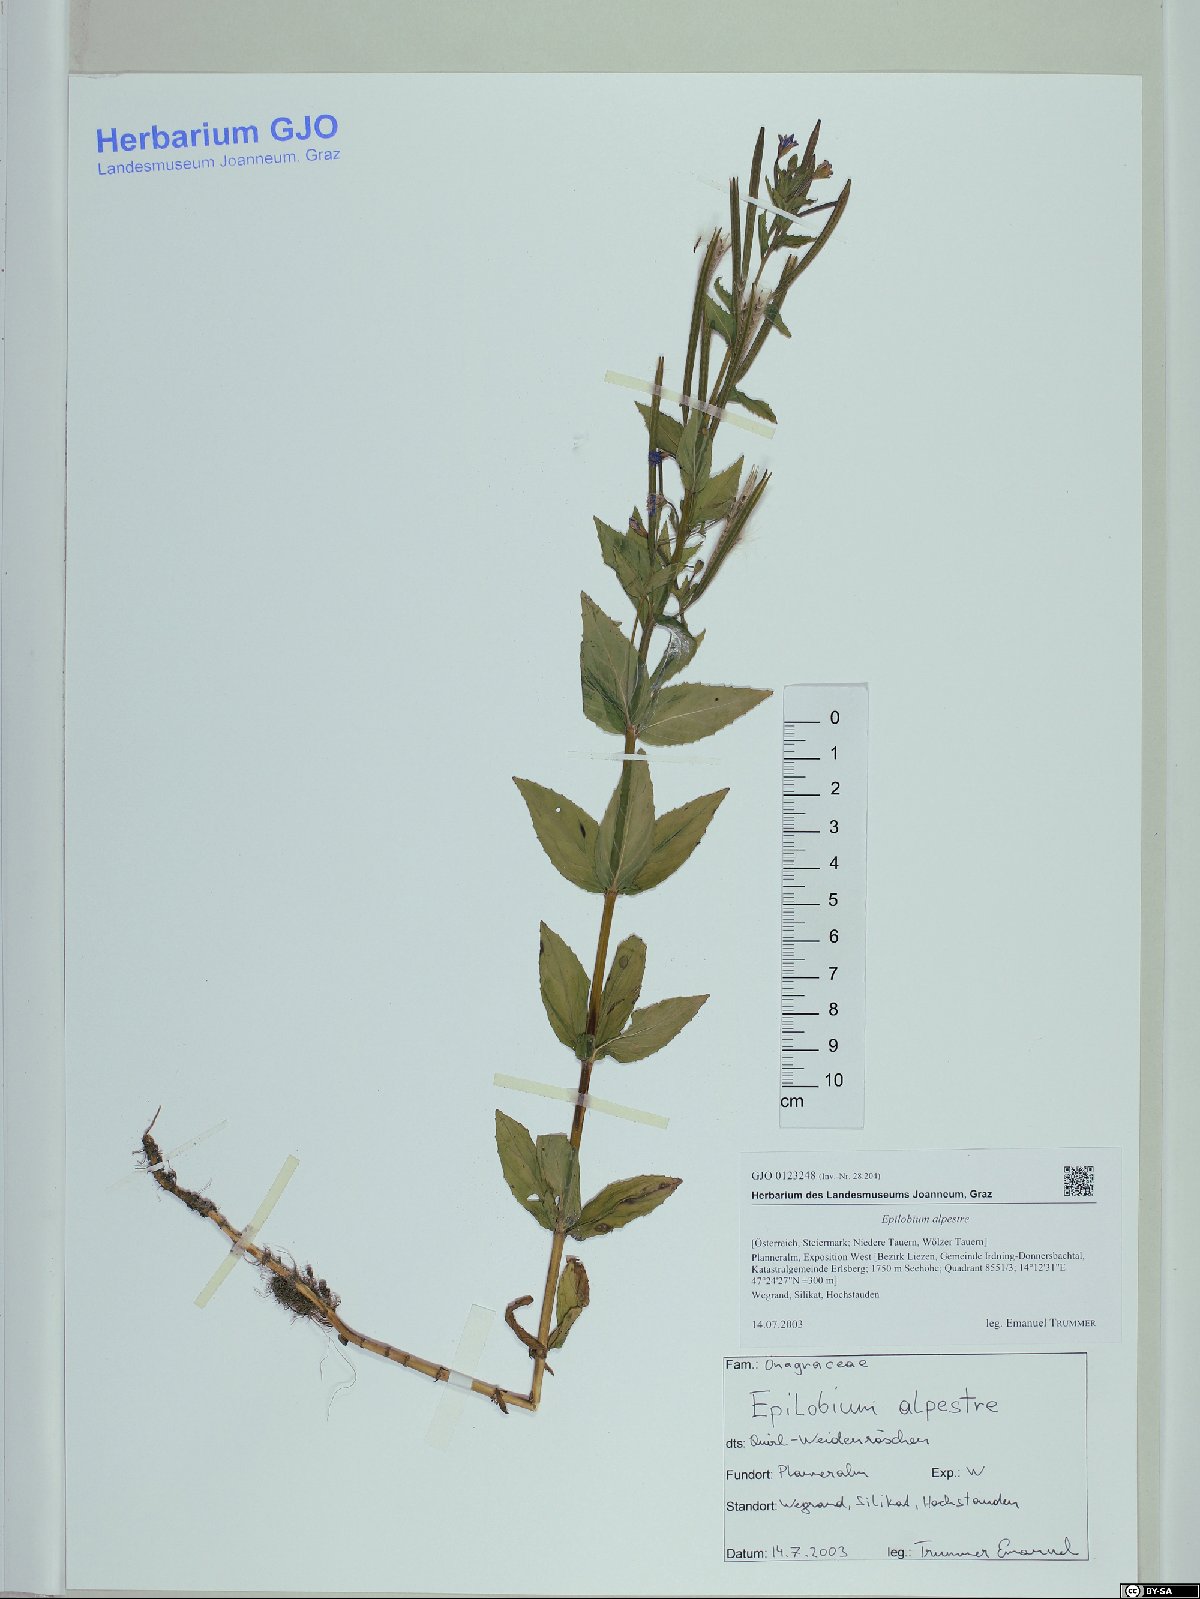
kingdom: Plantae
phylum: Tracheophyta
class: Magnoliopsida
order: Myrtales
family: Onagraceae
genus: Epilobium
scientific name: Epilobium alpestre
